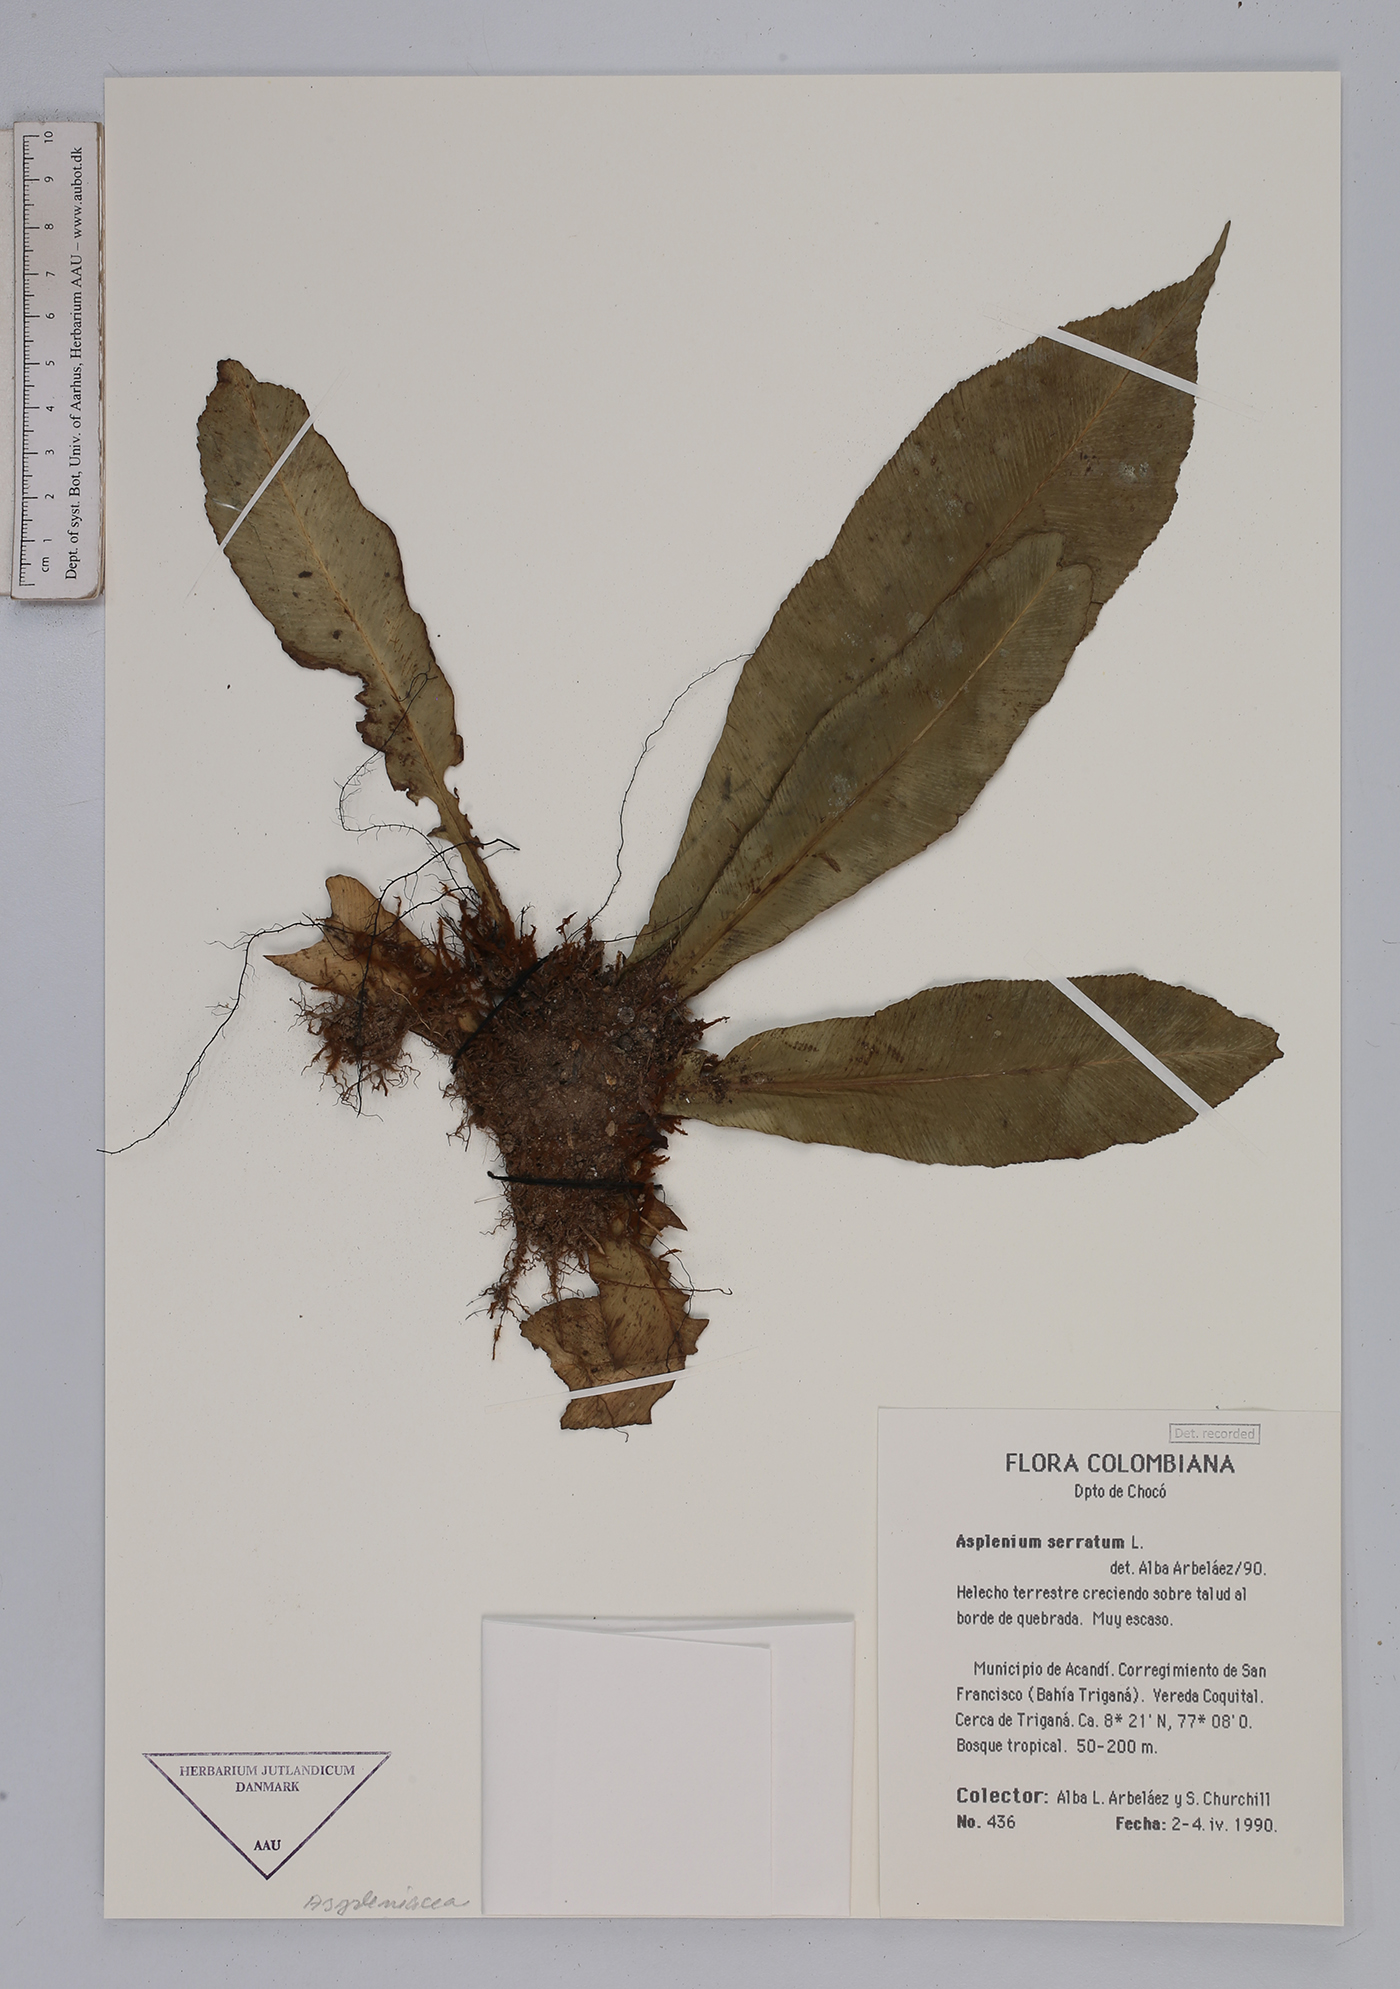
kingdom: Plantae
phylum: Tracheophyta
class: Polypodiopsida
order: Polypodiales
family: Aspleniaceae
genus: Asplenium
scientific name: Asplenium serratum
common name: Wild birdnest fern
